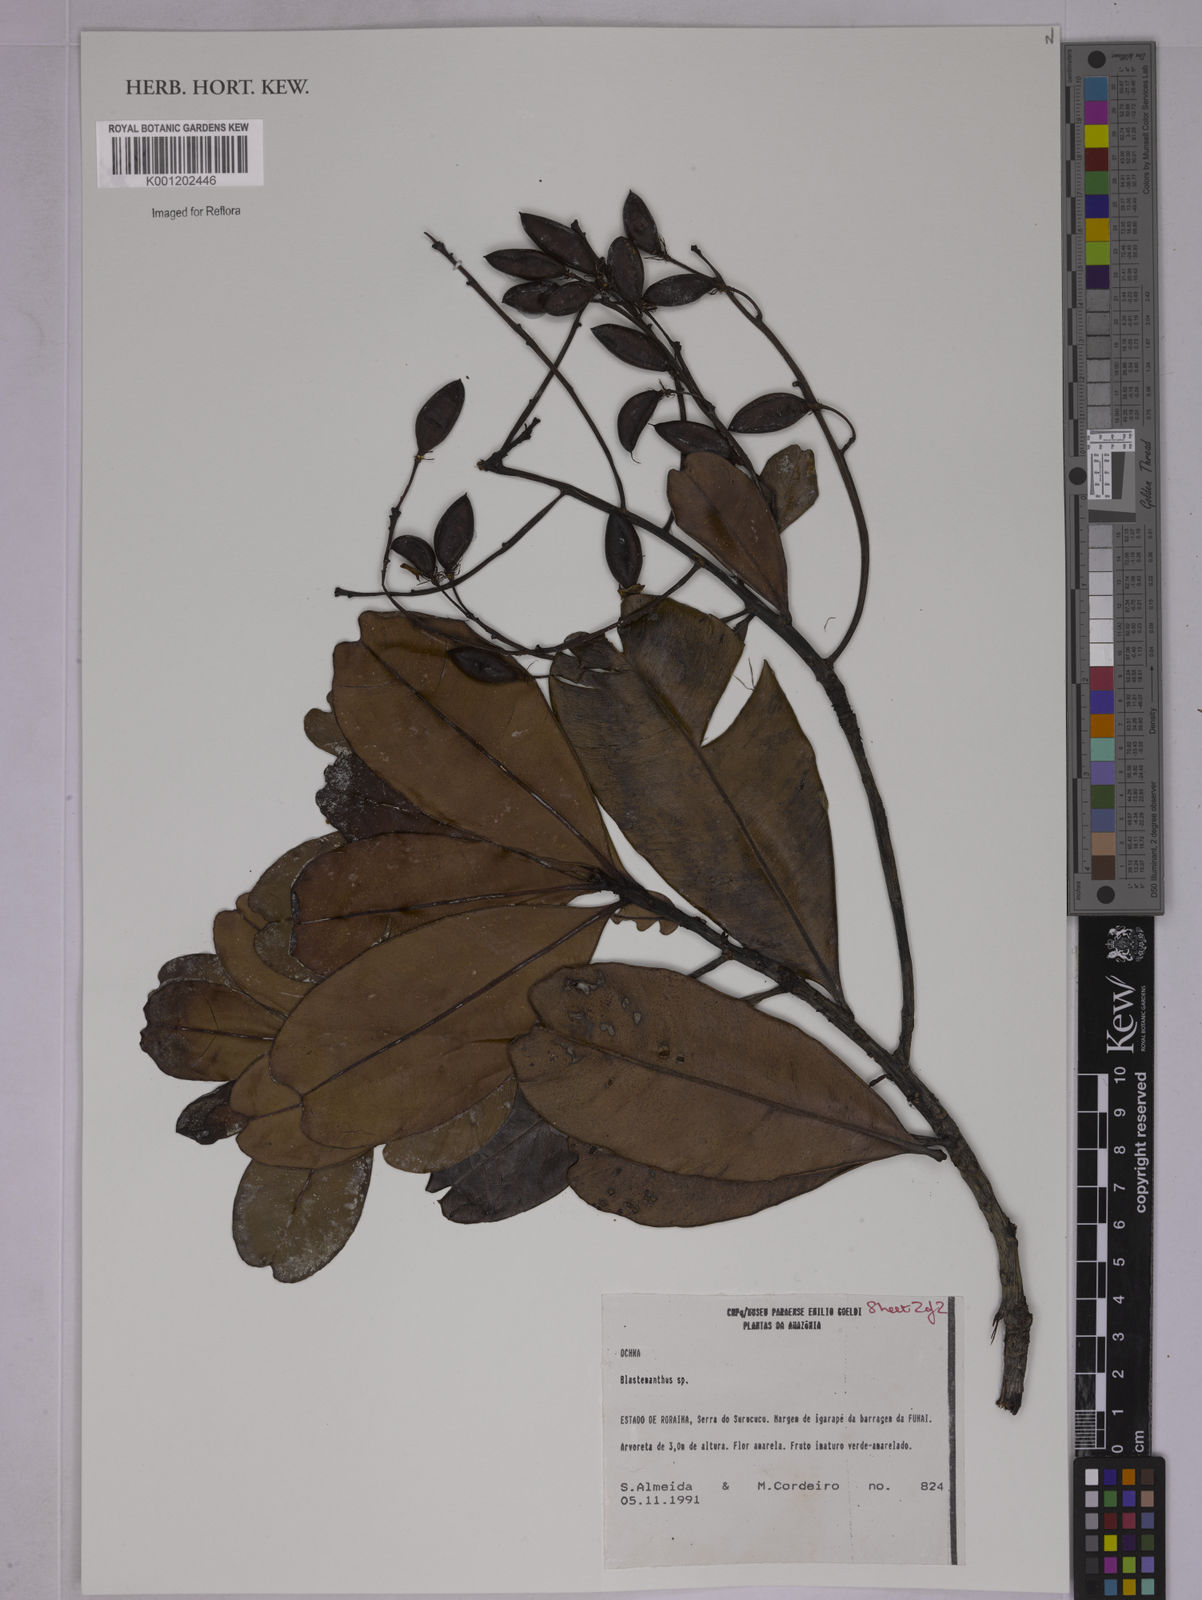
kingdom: Plantae
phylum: Tracheophyta
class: Magnoliopsida
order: Malpighiales
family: Ochnaceae
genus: Poecilandra
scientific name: Poecilandra retusa
